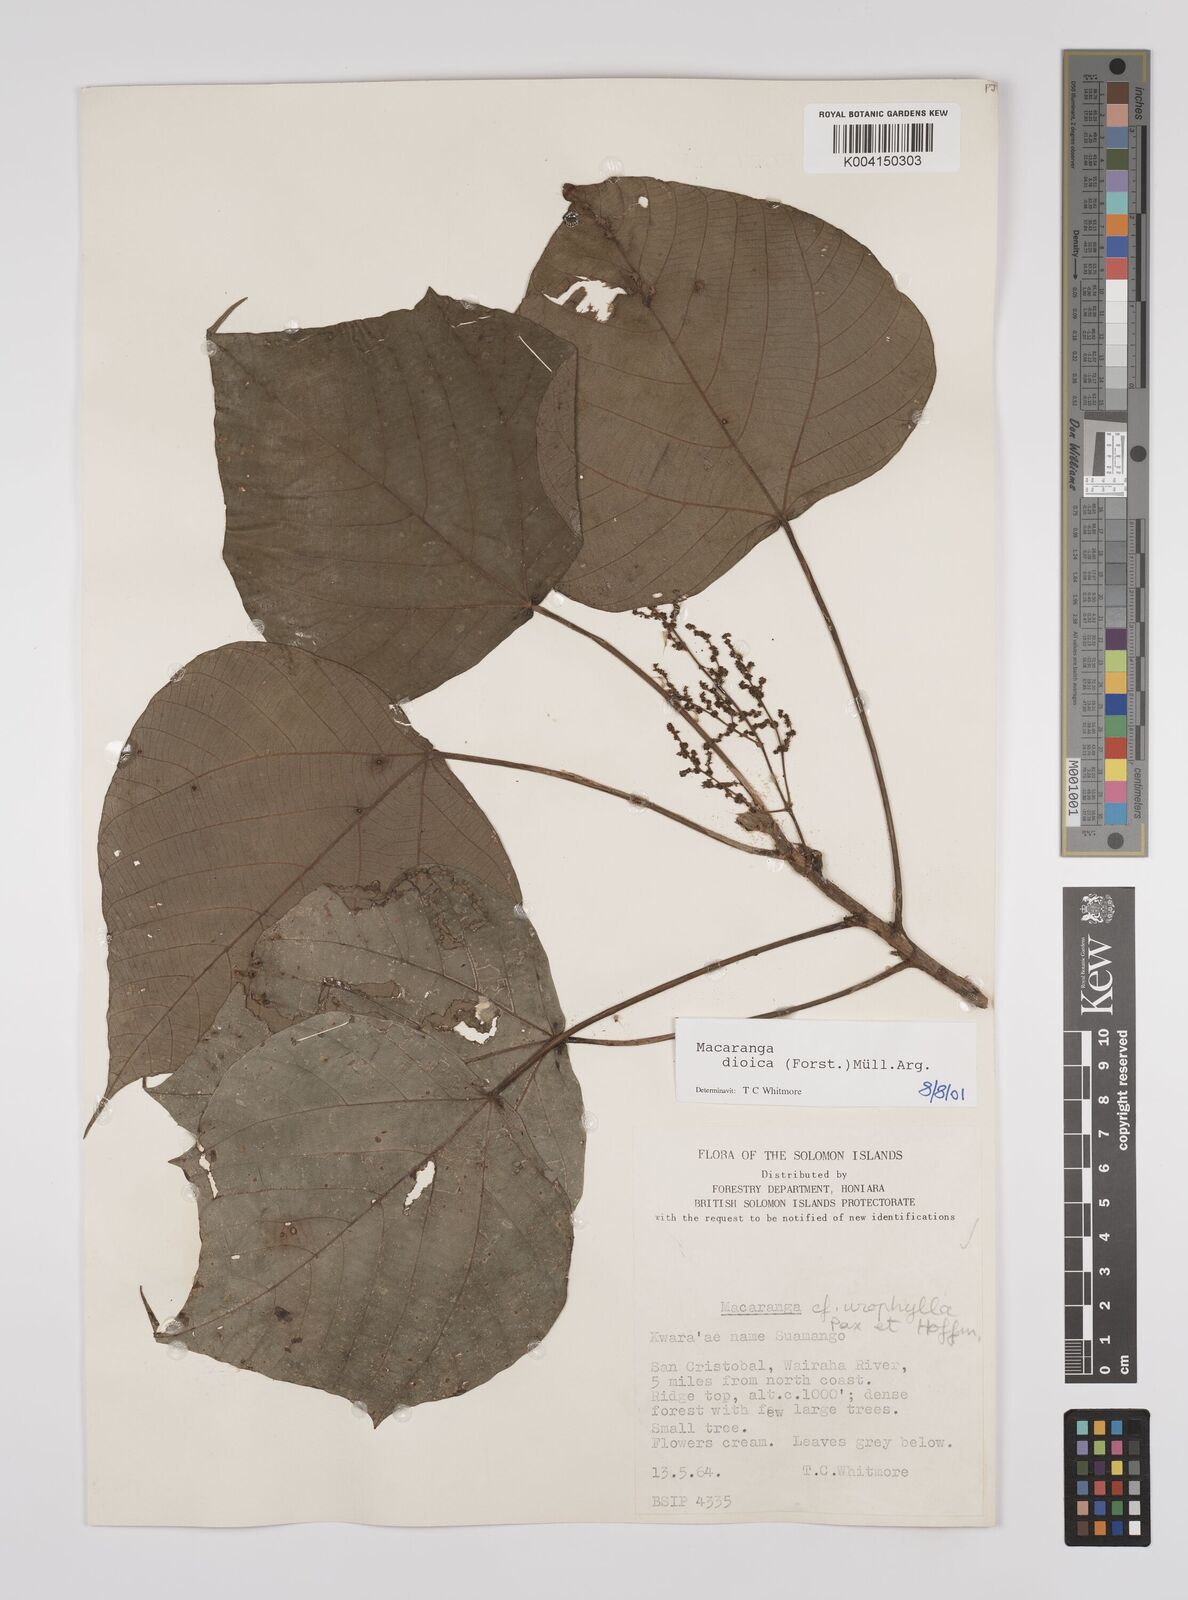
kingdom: Plantae
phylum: Tracheophyta
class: Magnoliopsida
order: Malpighiales
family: Euphorbiaceae
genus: Macaranga
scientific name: Macaranga dioica
